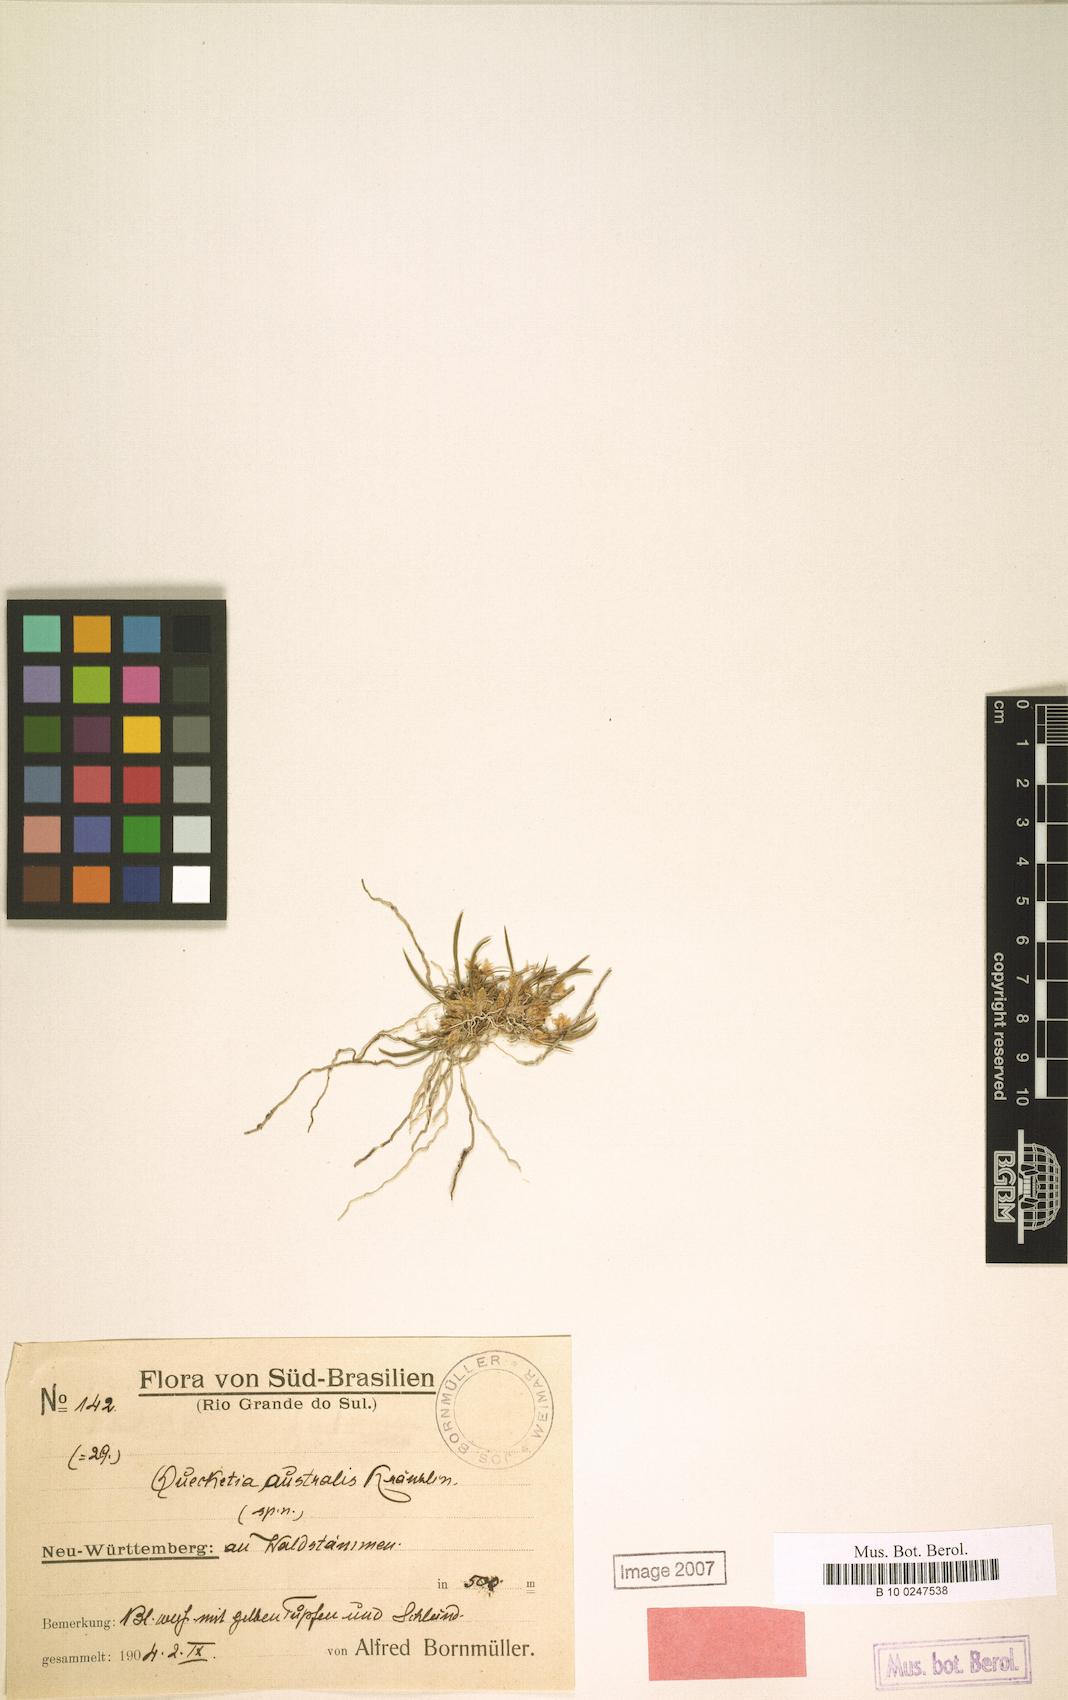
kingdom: Plantae
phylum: Tracheophyta
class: Liliopsida
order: Asparagales
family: Orchidaceae
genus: Capanemia
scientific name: Capanemia micromera
